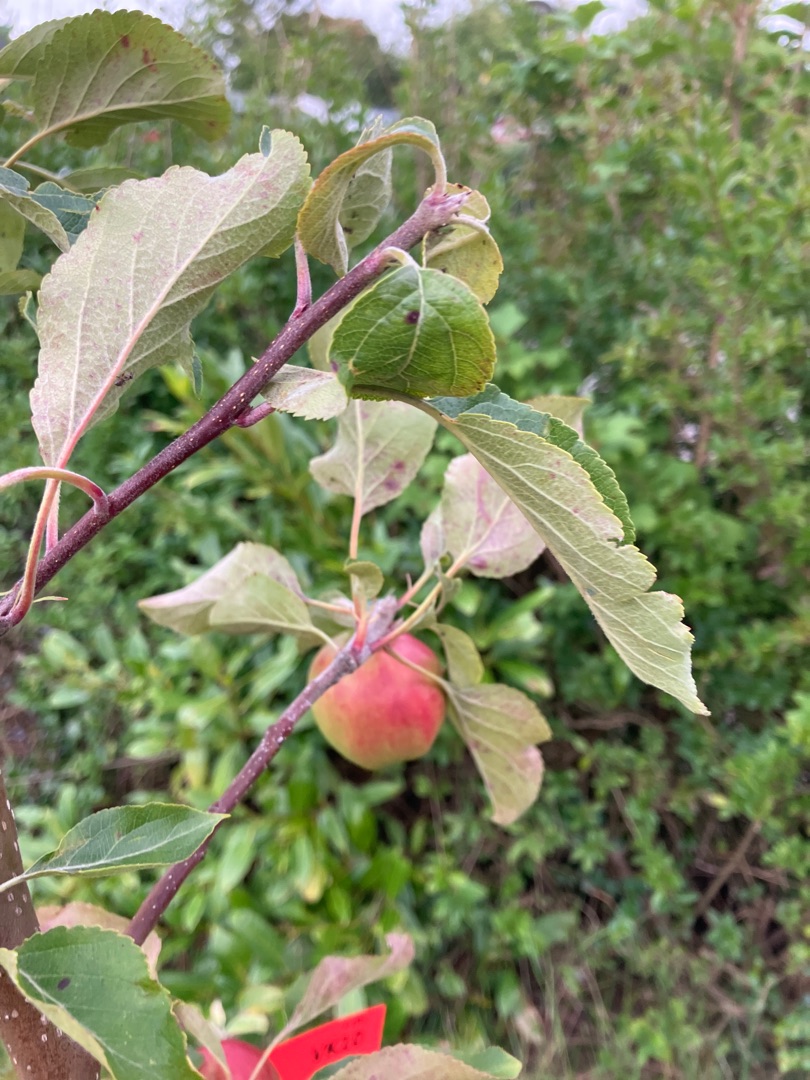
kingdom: Plantae
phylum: Tracheophyta
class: Magnoliopsida
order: Rosales
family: Rosaceae
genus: Malus
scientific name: Malus sylvestris
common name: Skov-æble
